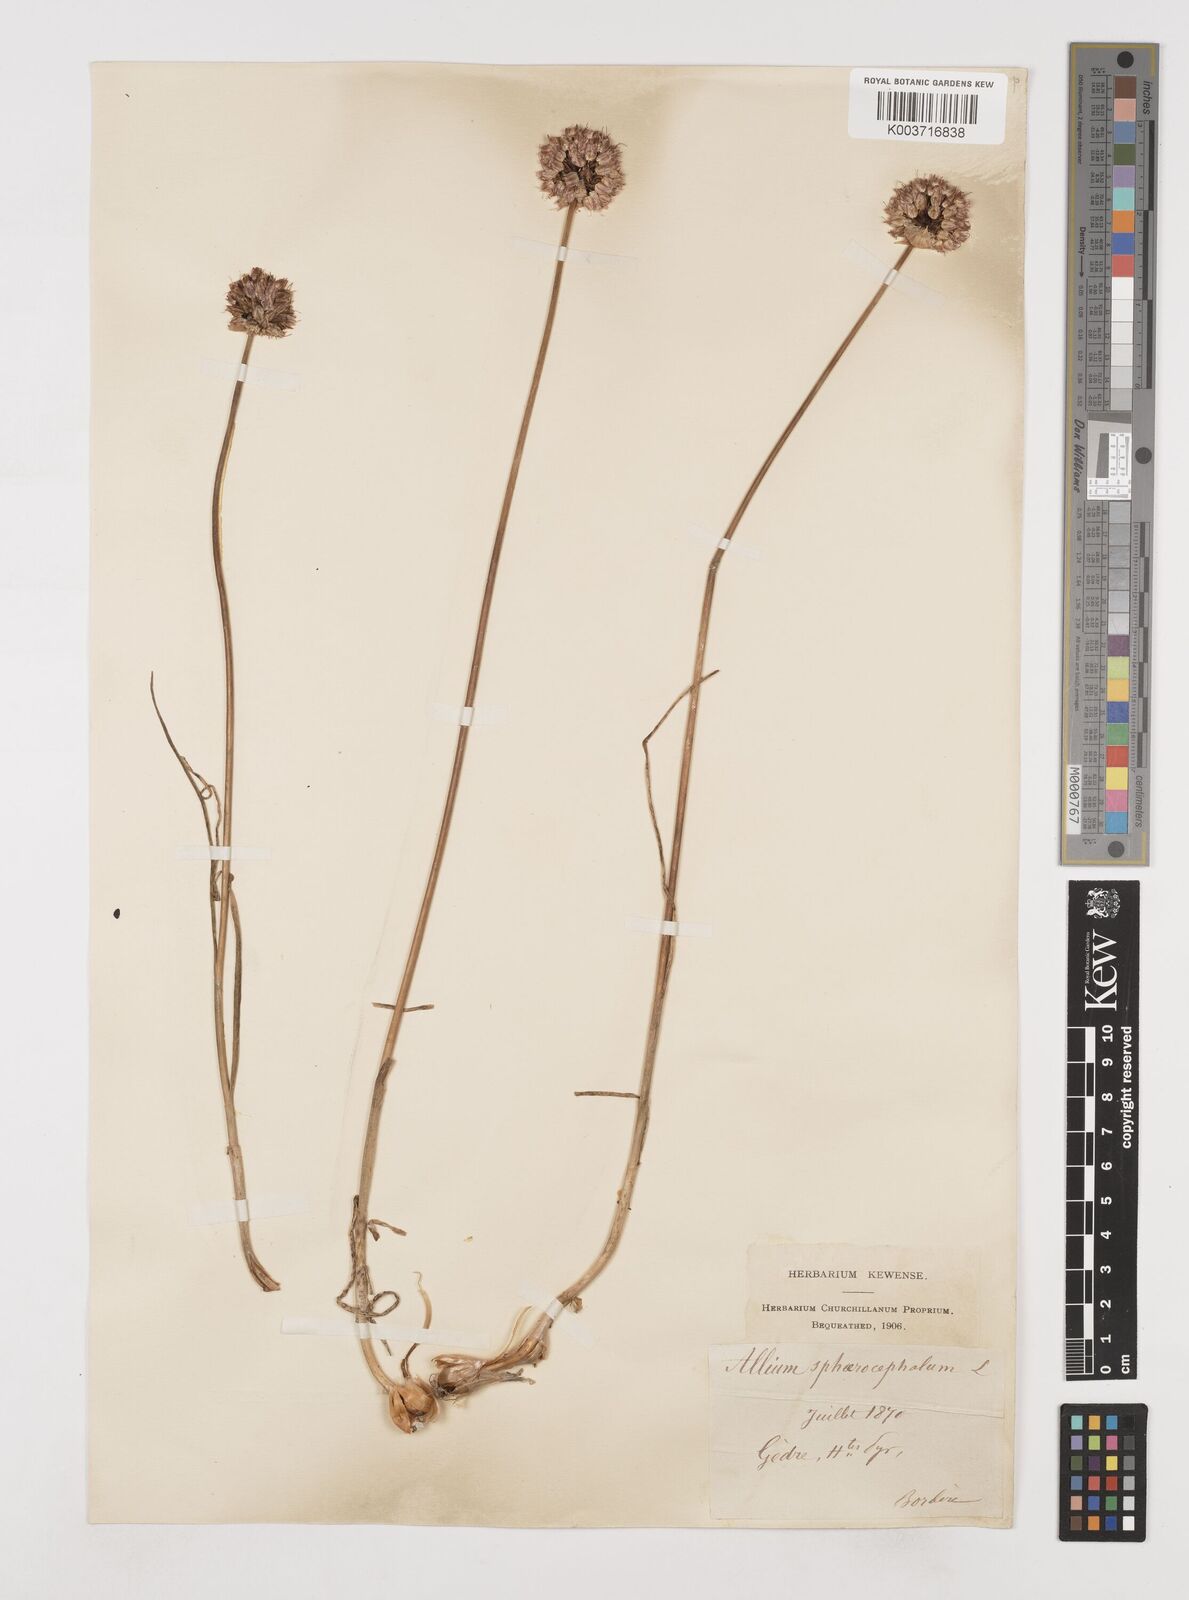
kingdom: Plantae
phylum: Tracheophyta
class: Liliopsida
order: Asparagales
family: Amaryllidaceae
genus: Allium
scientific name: Allium sphaerocephalon
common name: Round-headed leek
